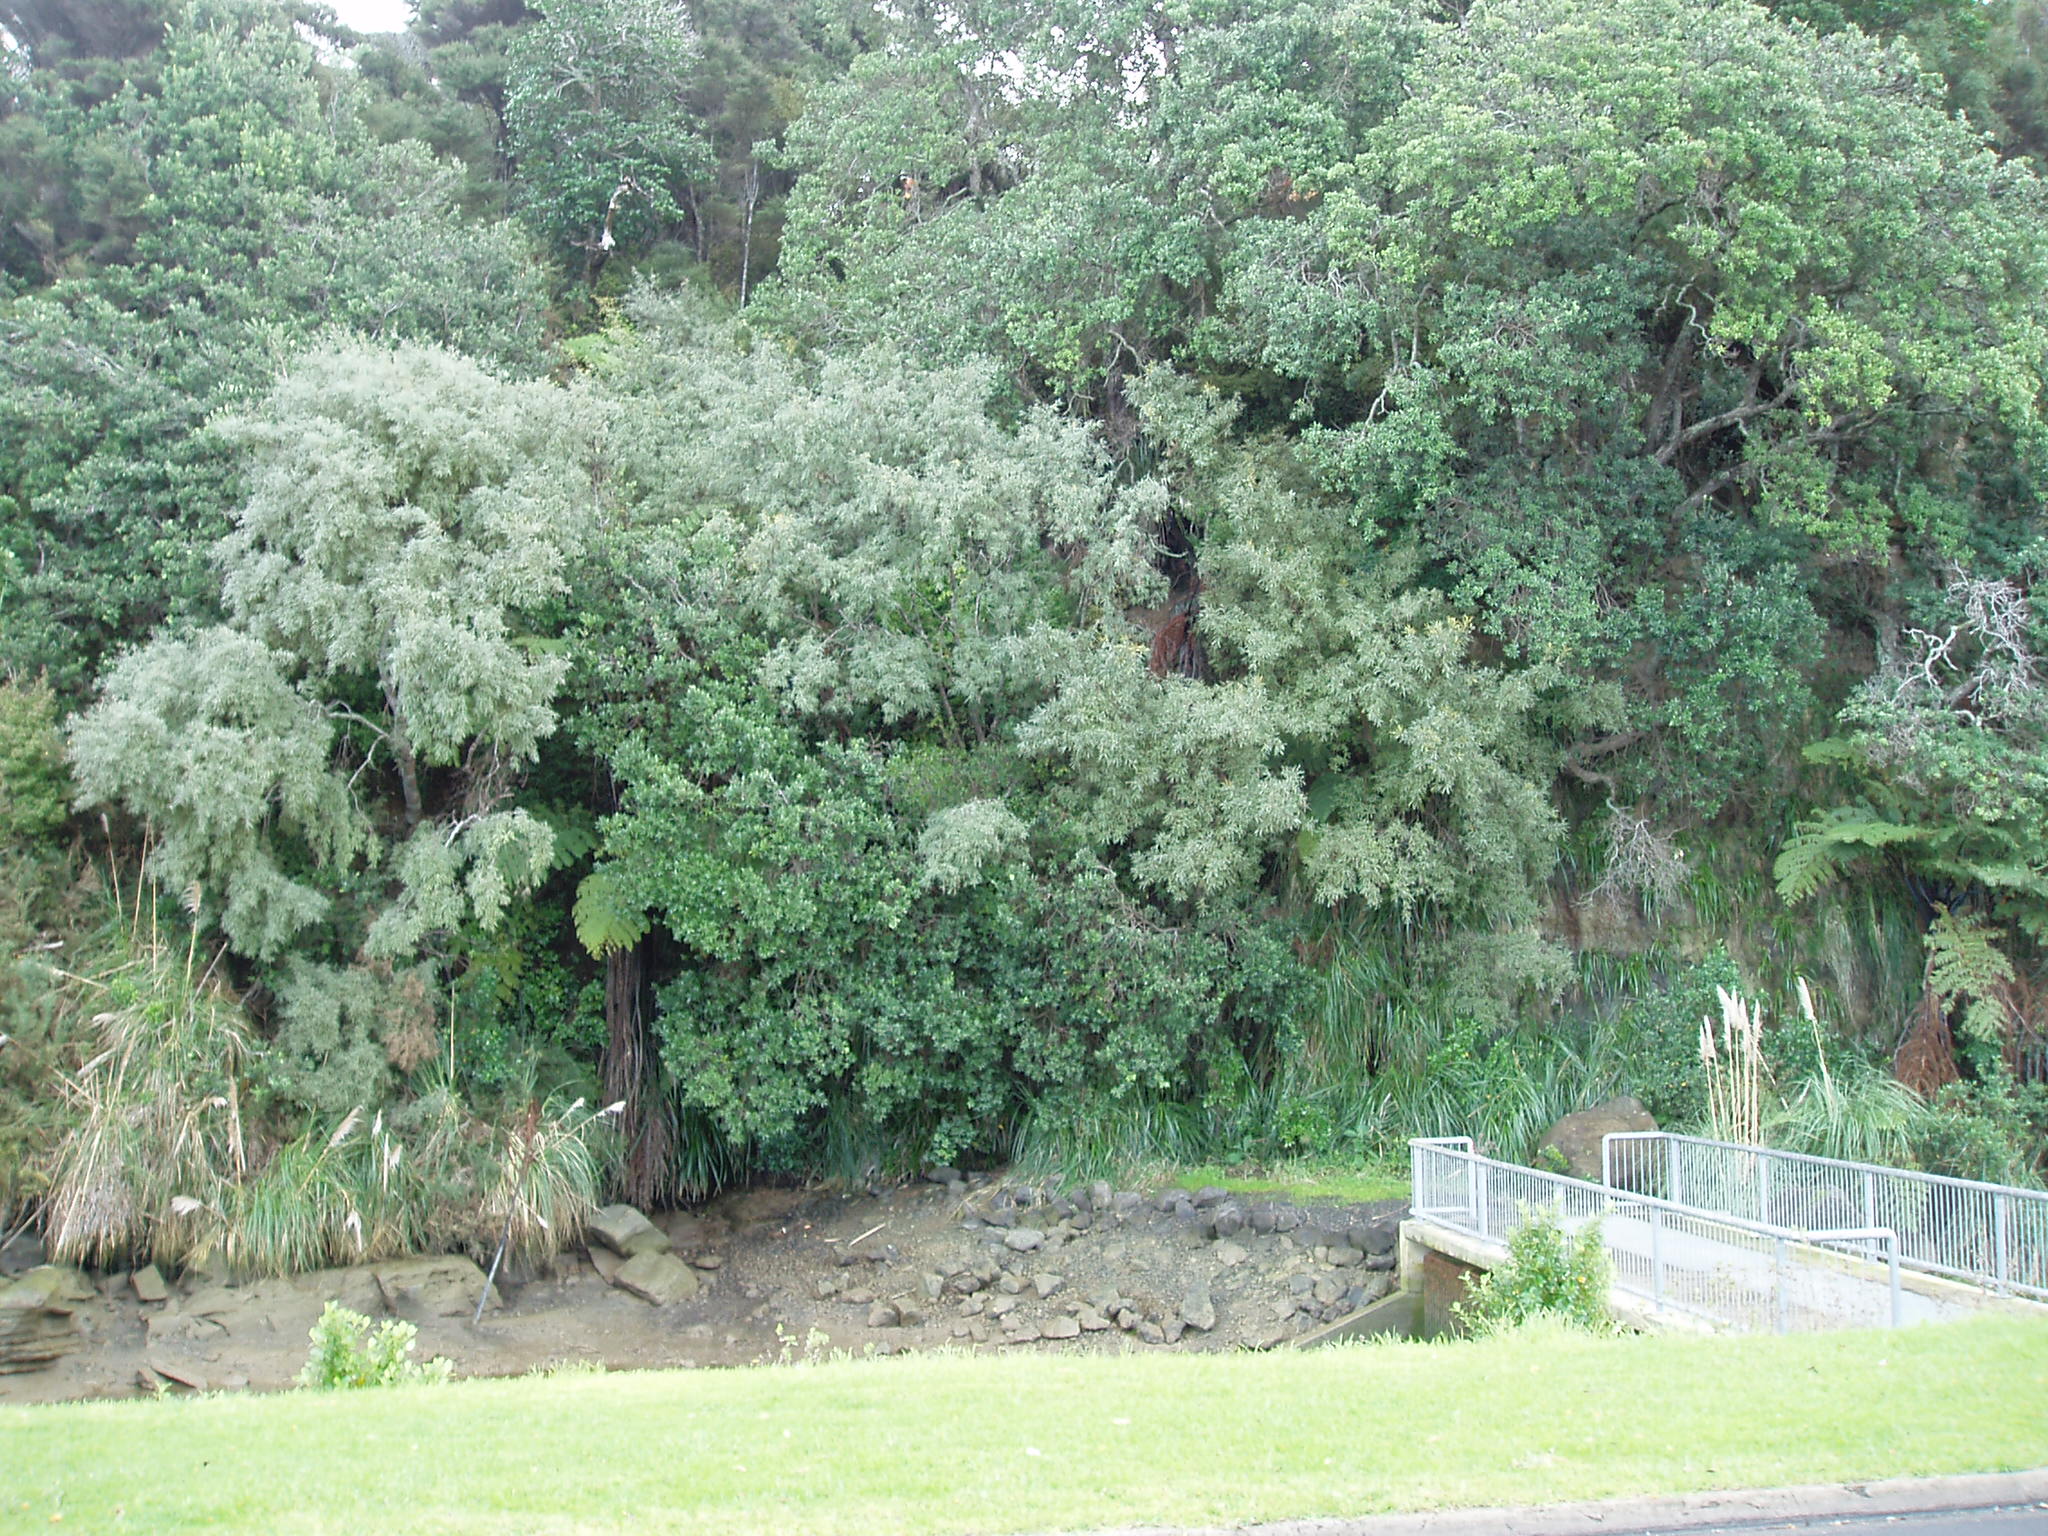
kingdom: Plantae
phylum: Tracheophyta
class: Liliopsida
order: Poales
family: Cyperaceae
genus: Machaerina
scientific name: Machaerina sinclairii
